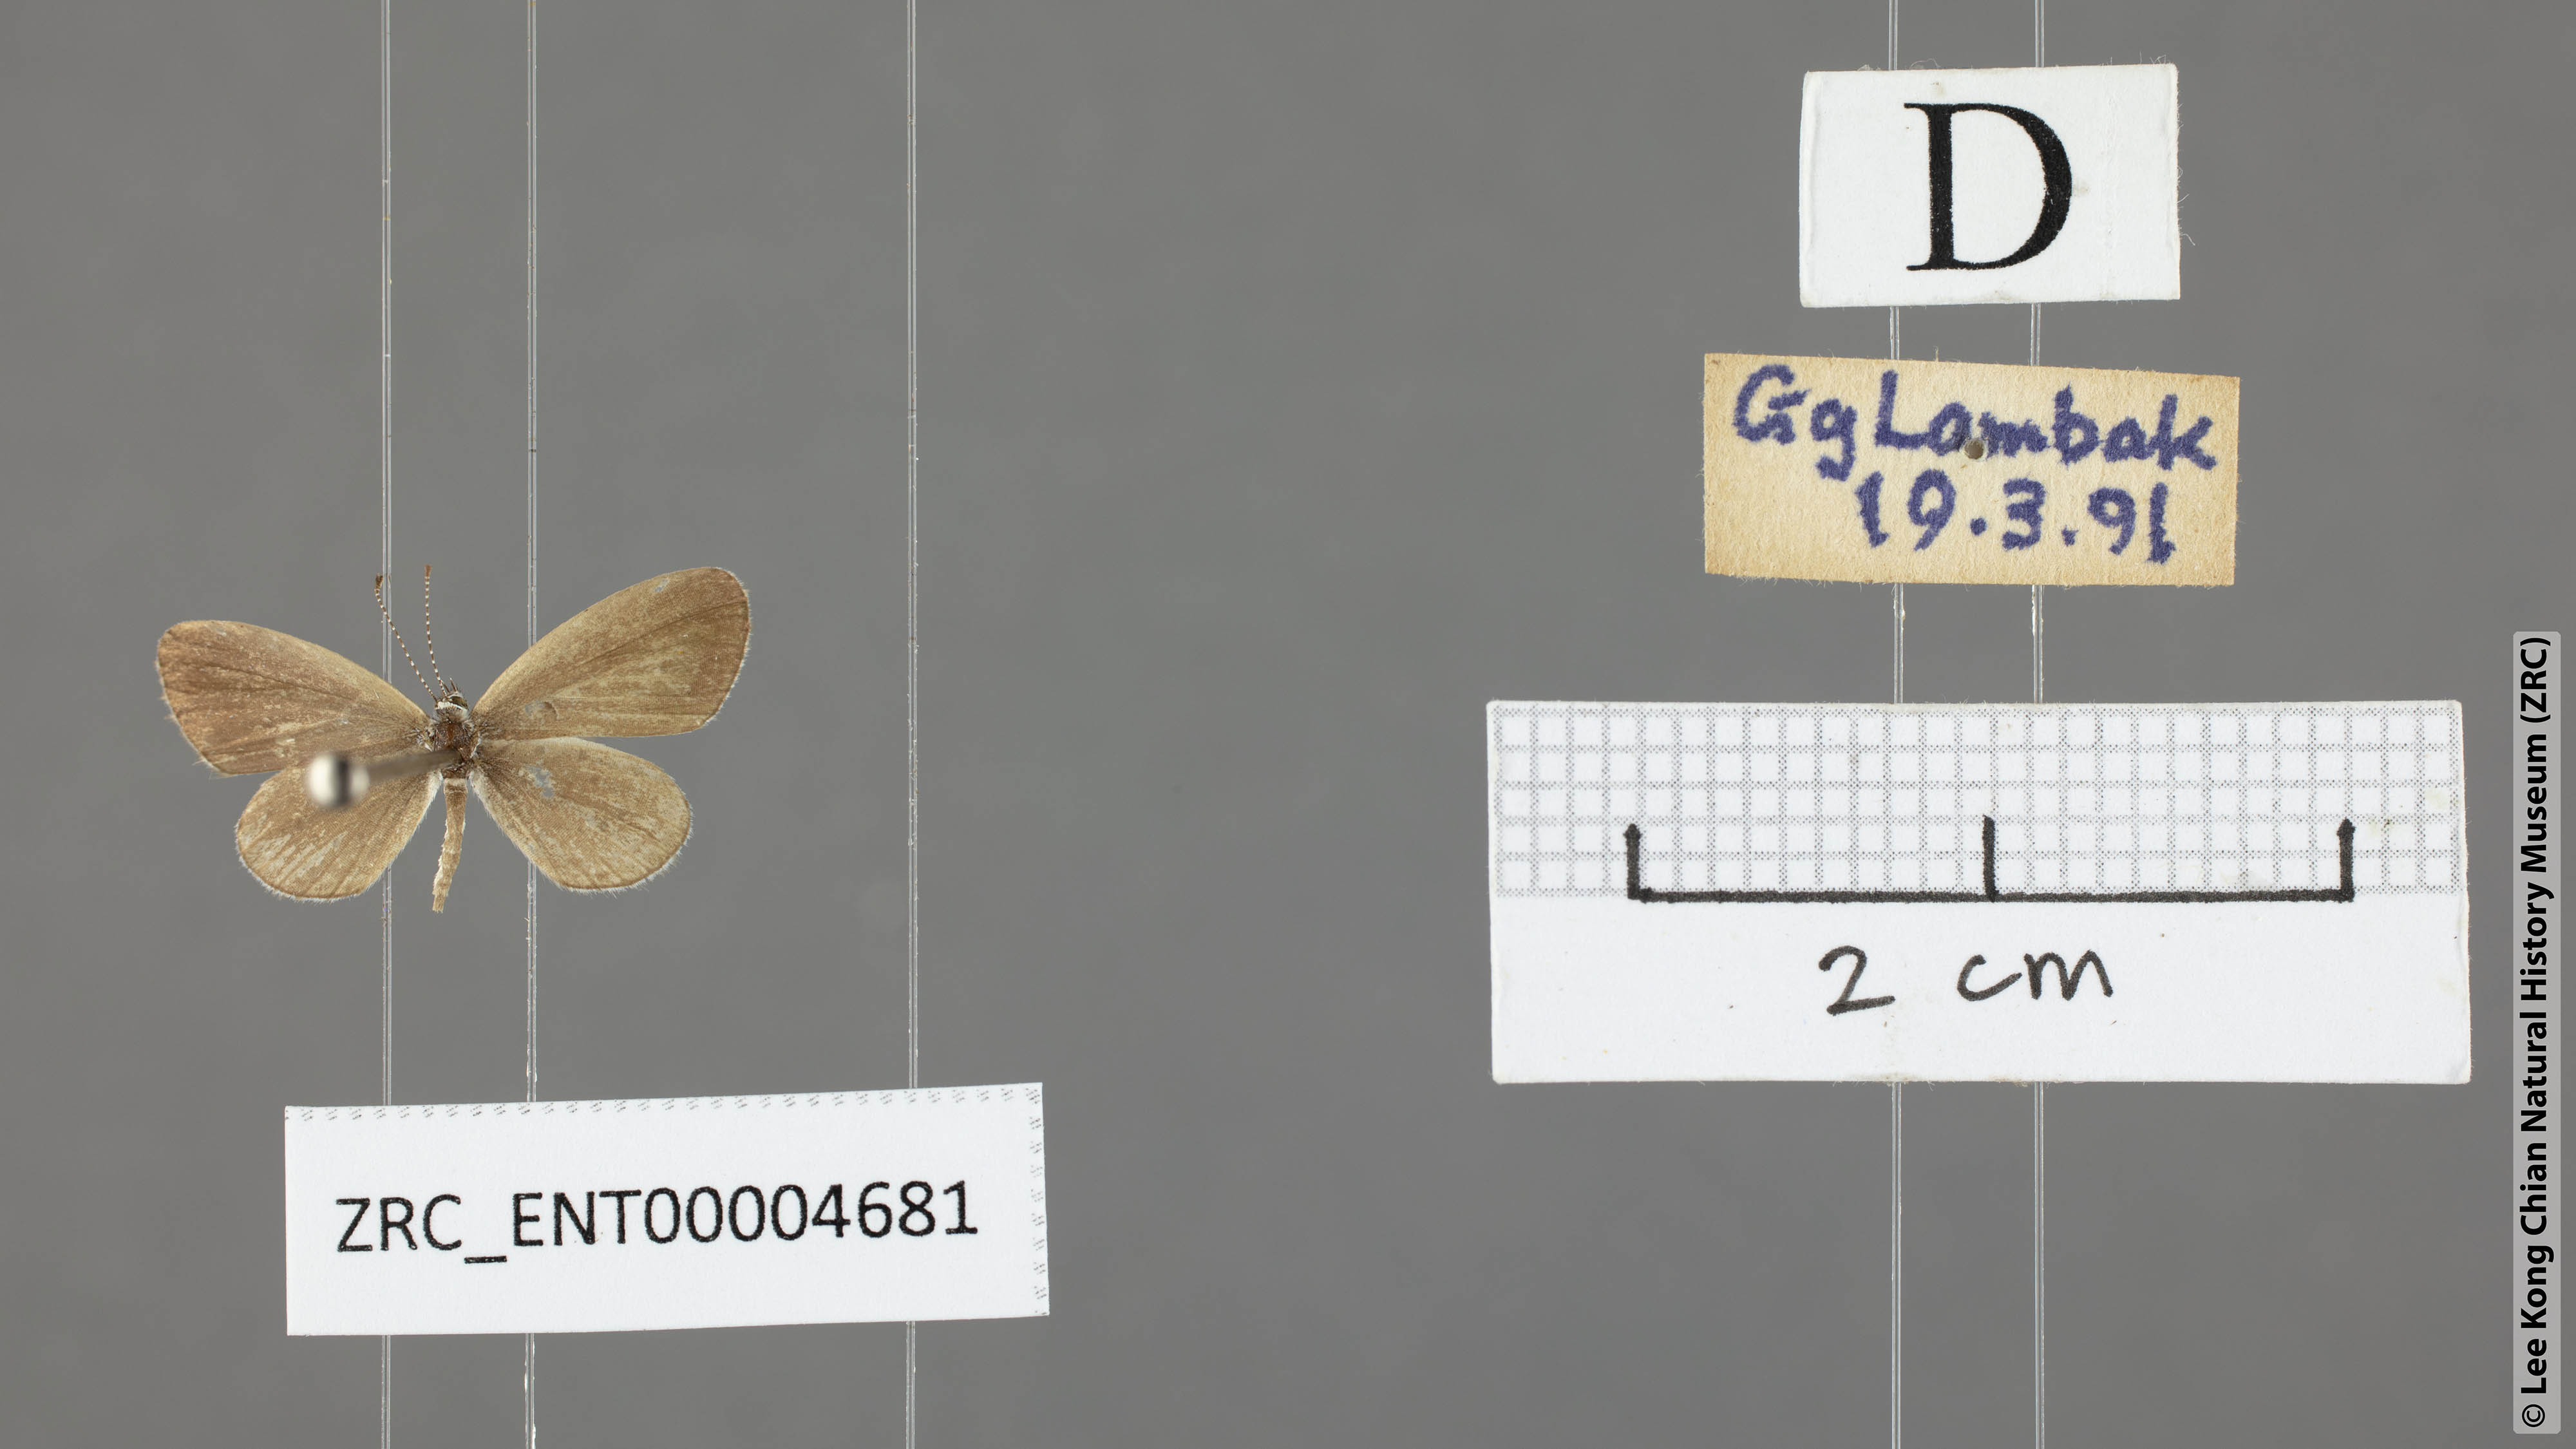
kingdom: Animalia
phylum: Arthropoda
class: Insecta
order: Lepidoptera
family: Lycaenidae
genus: Zizula
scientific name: Zizula hylax
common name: Gaika blue
